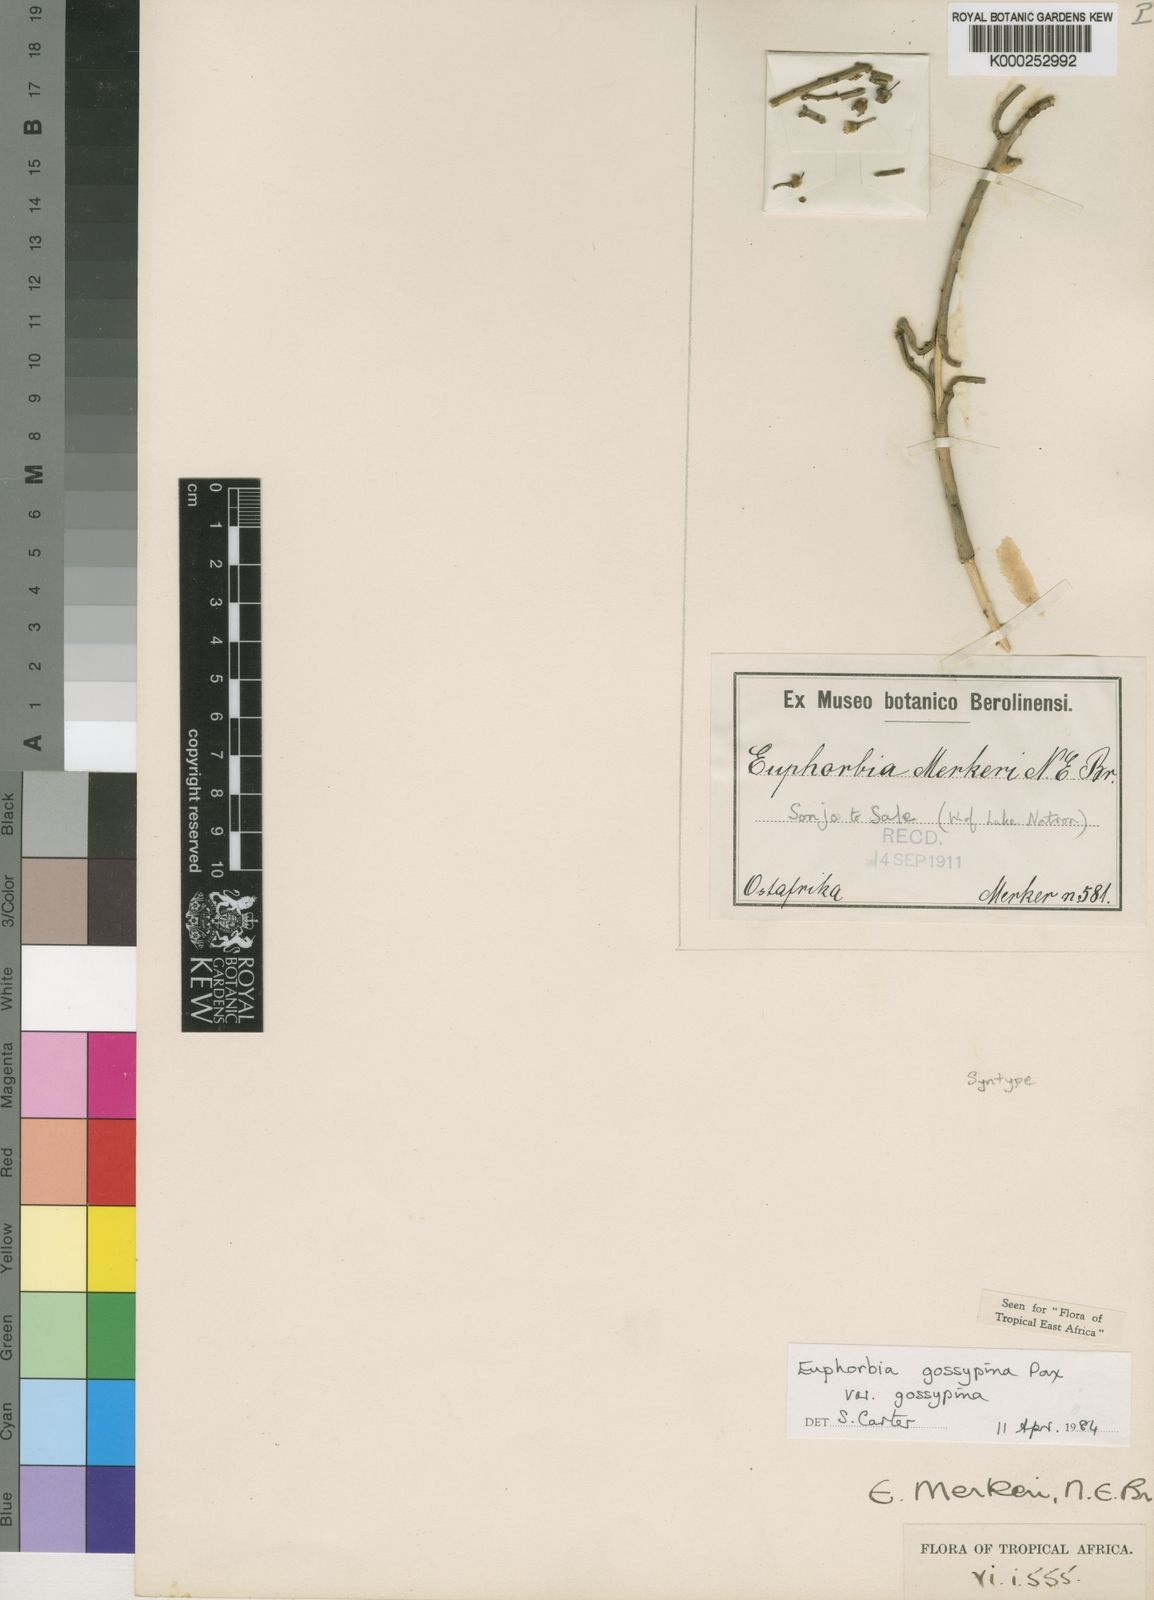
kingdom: Plantae
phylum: Tracheophyta
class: Magnoliopsida
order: Malpighiales
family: Euphorbiaceae
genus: Euphorbia
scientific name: Euphorbia gossypina
